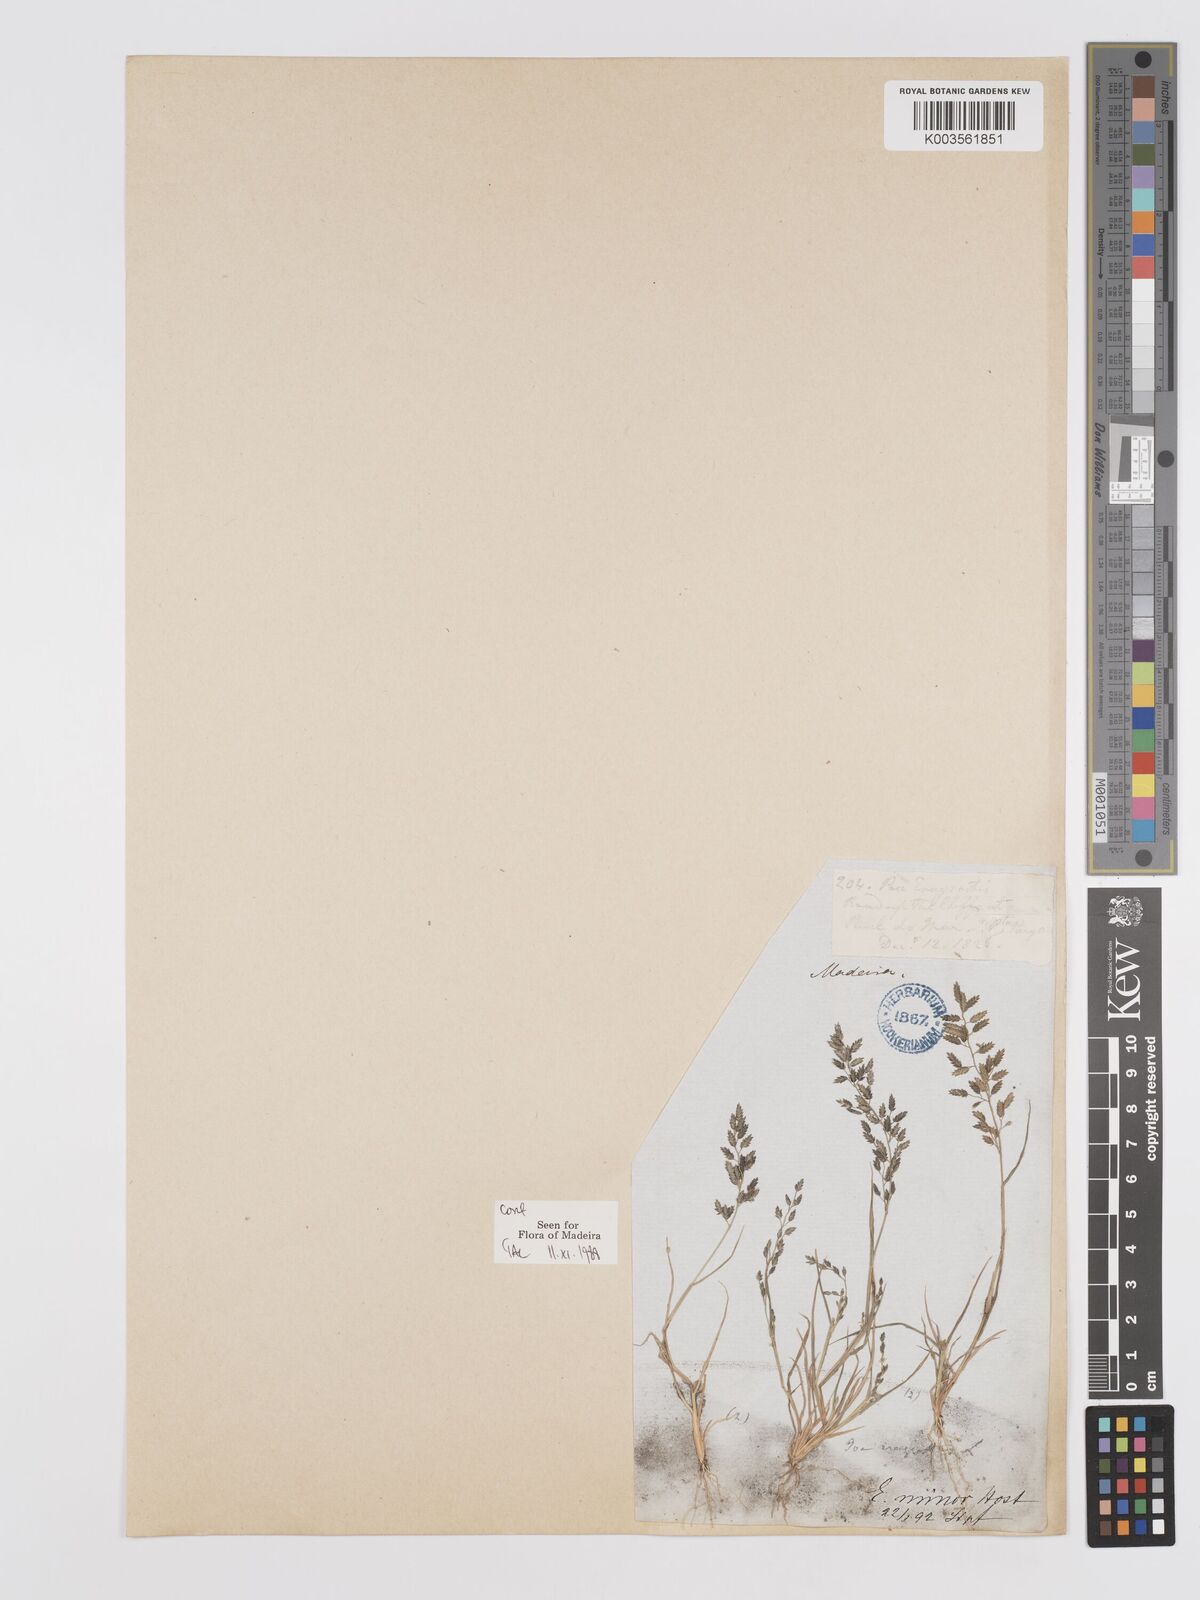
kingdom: Plantae
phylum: Tracheophyta
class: Liliopsida
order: Poales
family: Poaceae
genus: Eragrostis
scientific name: Eragrostis minor
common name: Small love-grass
